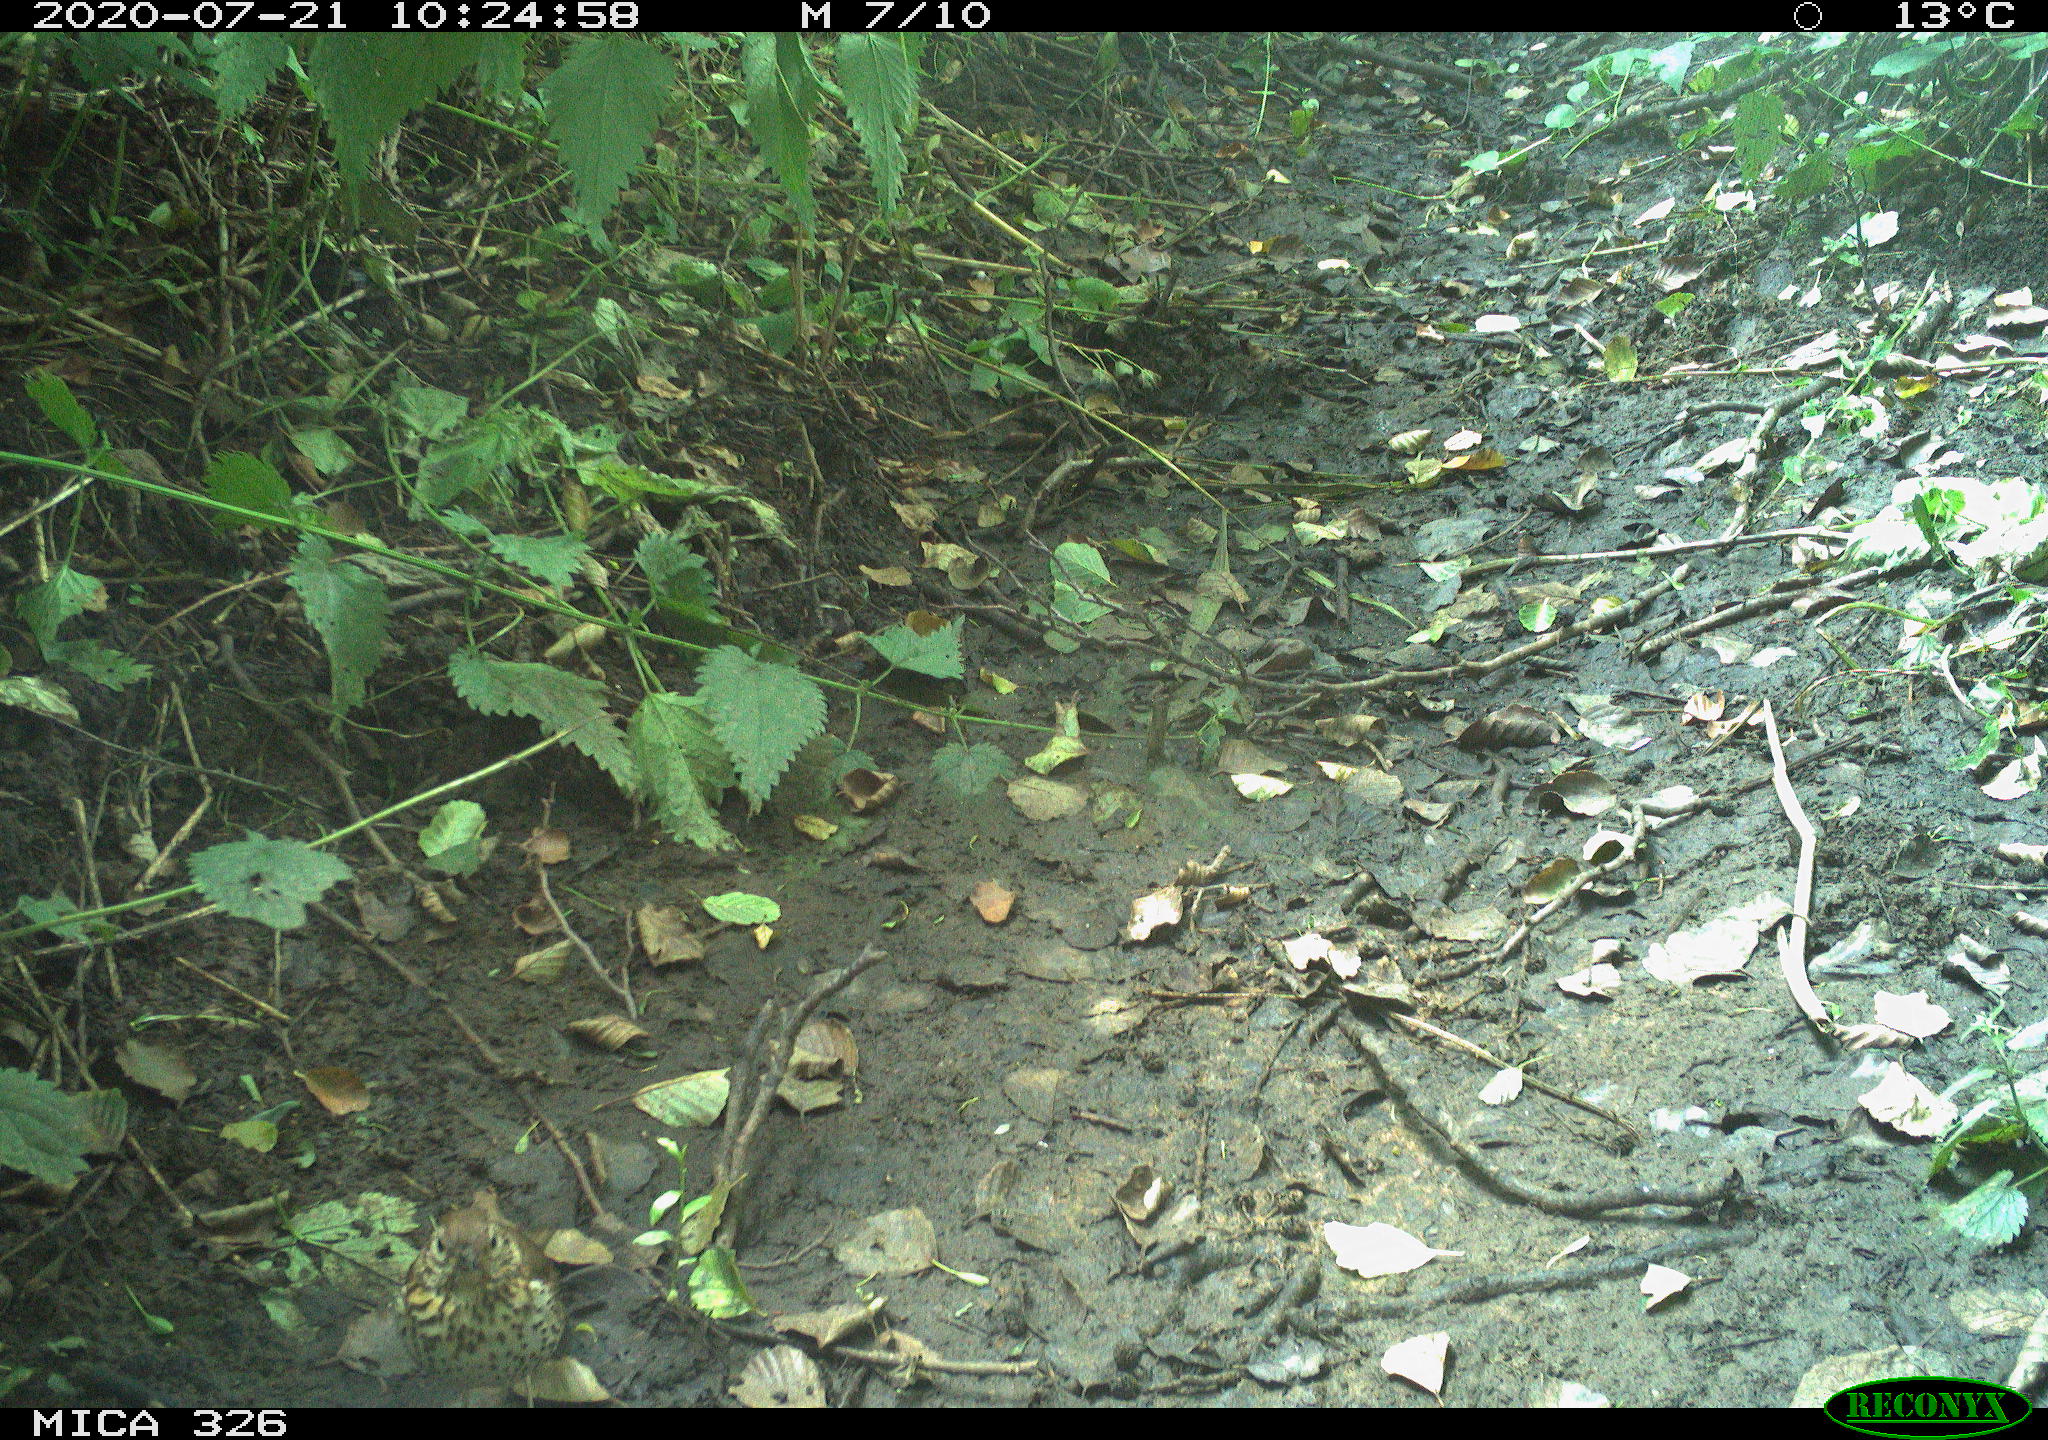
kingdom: Animalia
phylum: Chordata
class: Aves
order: Passeriformes
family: Turdidae
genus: Turdus
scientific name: Turdus philomelos
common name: Song thrush
